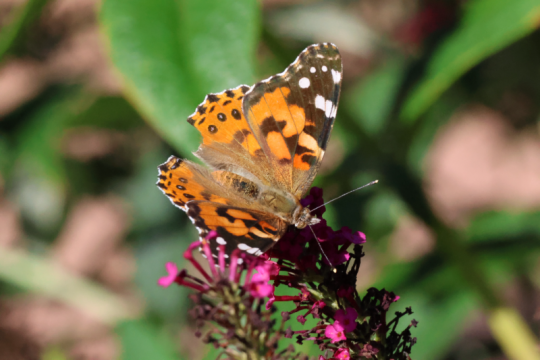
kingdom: Animalia
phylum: Arthropoda
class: Insecta
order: Lepidoptera
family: Nymphalidae
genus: Vanessa
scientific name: Vanessa cardui
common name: Painted Lady
